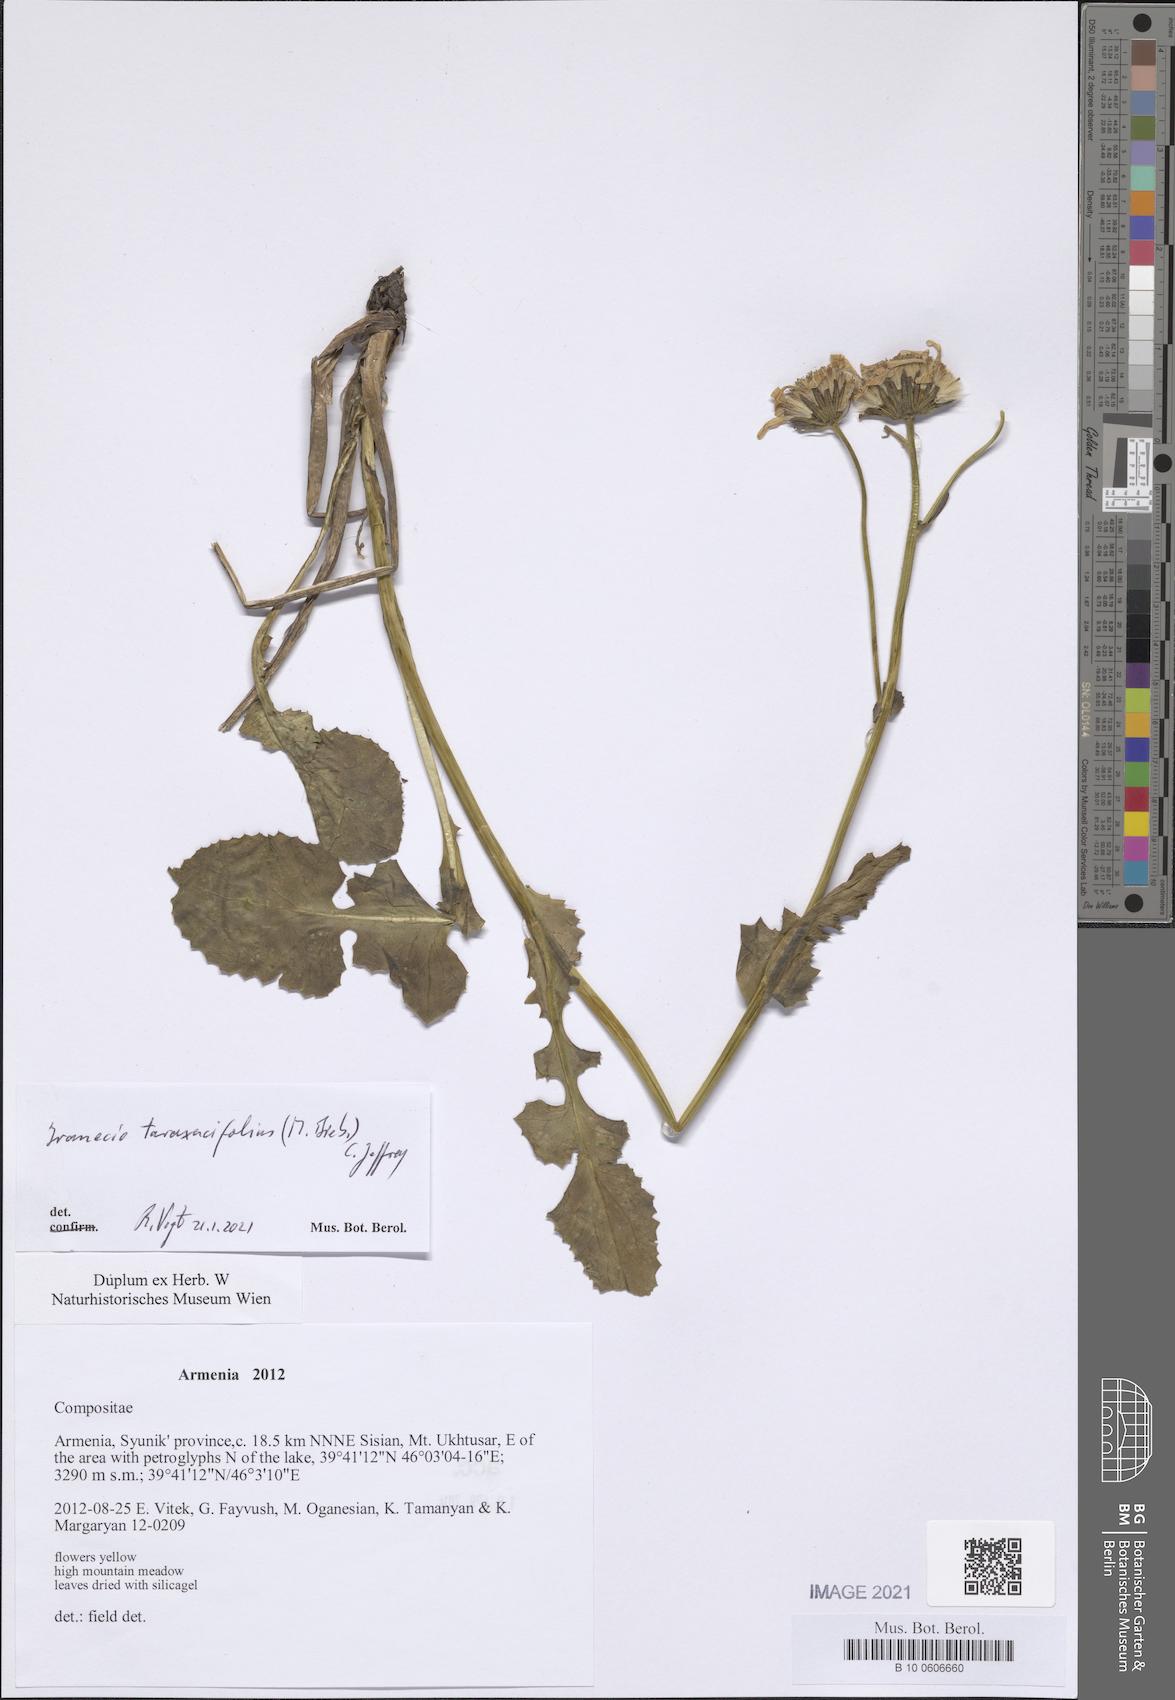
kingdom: Plantae
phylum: Tracheophyta
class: Magnoliopsida
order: Asterales
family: Asteraceae
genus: Turanecio
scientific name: Turanecio taraxacifolius
